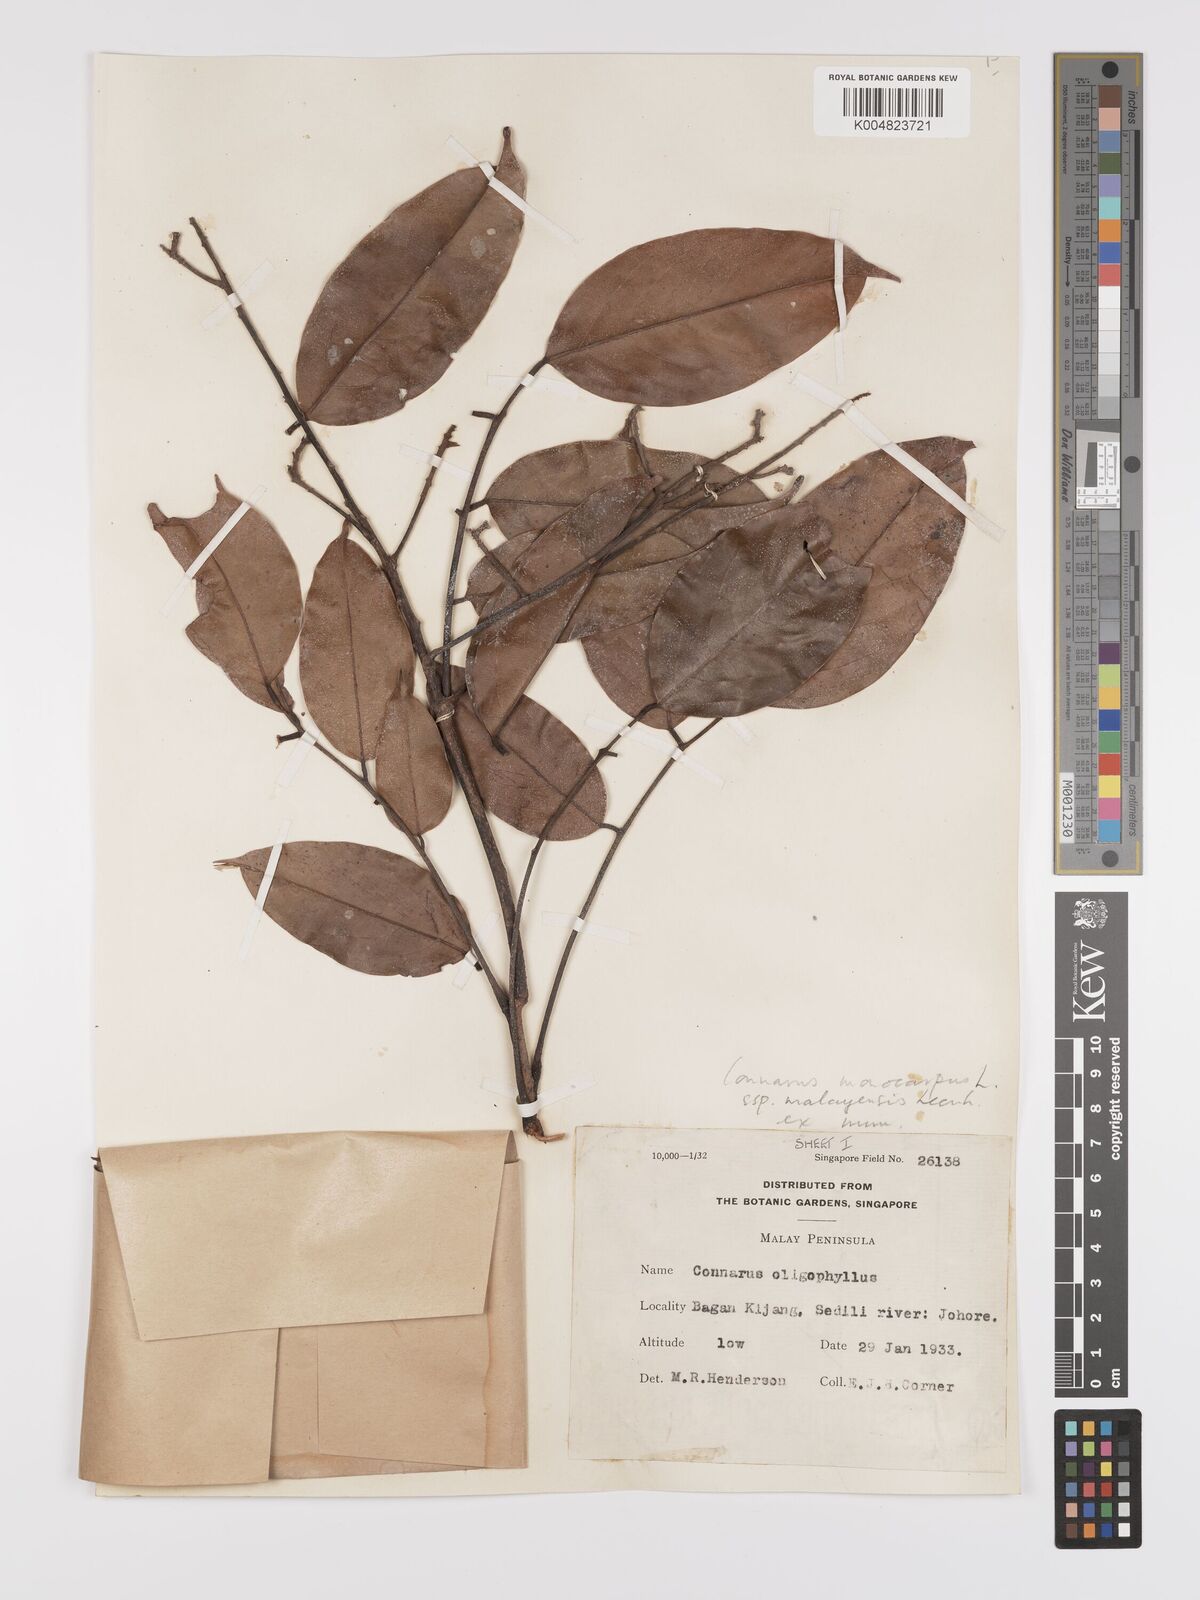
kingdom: Plantae
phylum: Tracheophyta
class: Magnoliopsida
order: Oxalidales
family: Connaraceae
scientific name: Connaraceae
